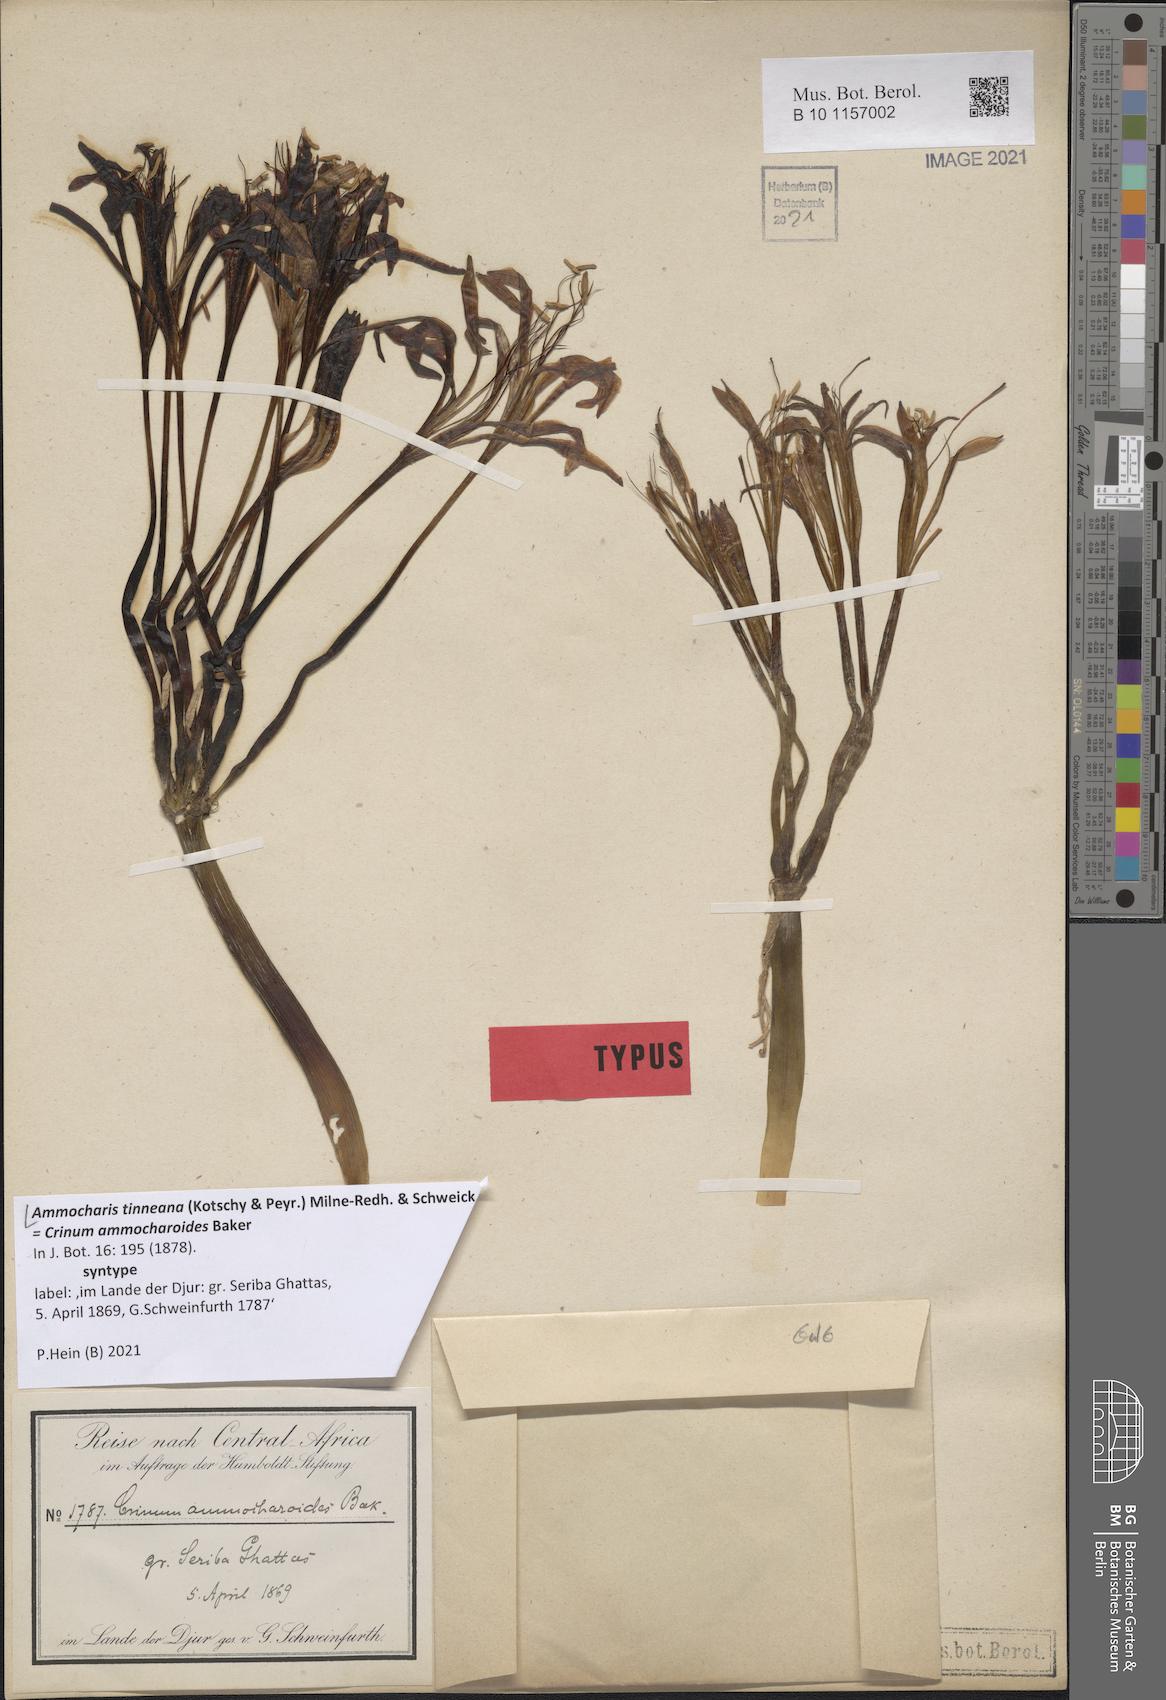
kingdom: Plantae
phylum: Tracheophyta
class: Liliopsida
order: Asparagales
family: Amaryllidaceae
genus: Ammocharis
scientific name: Ammocharis tinneana
